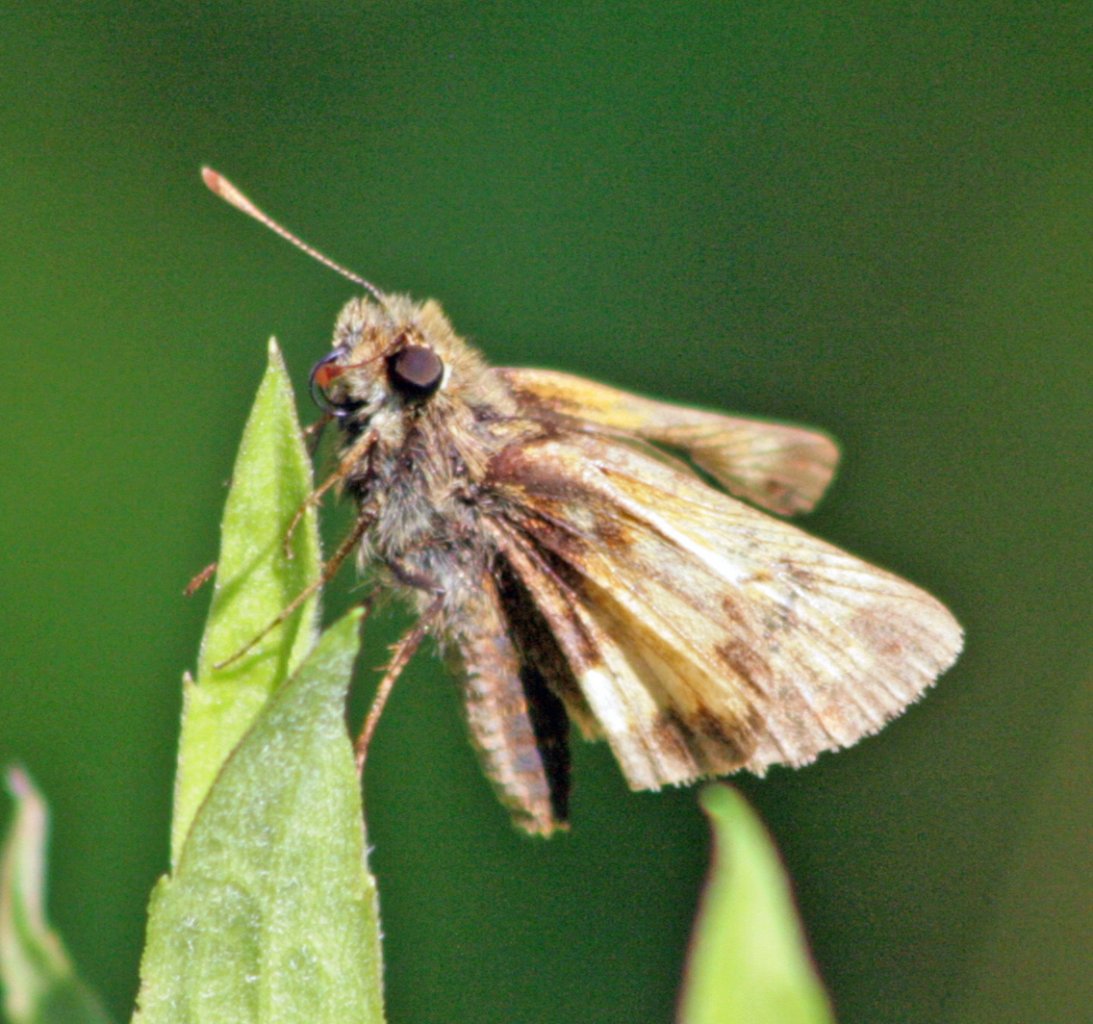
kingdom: Animalia
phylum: Arthropoda
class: Insecta
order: Lepidoptera
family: Hesperiidae
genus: Lon
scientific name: Lon hobomok
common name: Hobomok Skipper
